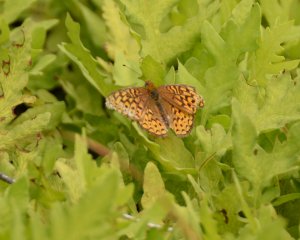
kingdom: Animalia
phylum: Arthropoda
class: Insecta
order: Lepidoptera
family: Nymphalidae
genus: Speyeria
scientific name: Speyeria atlantis
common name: Atlantis Fritillary
